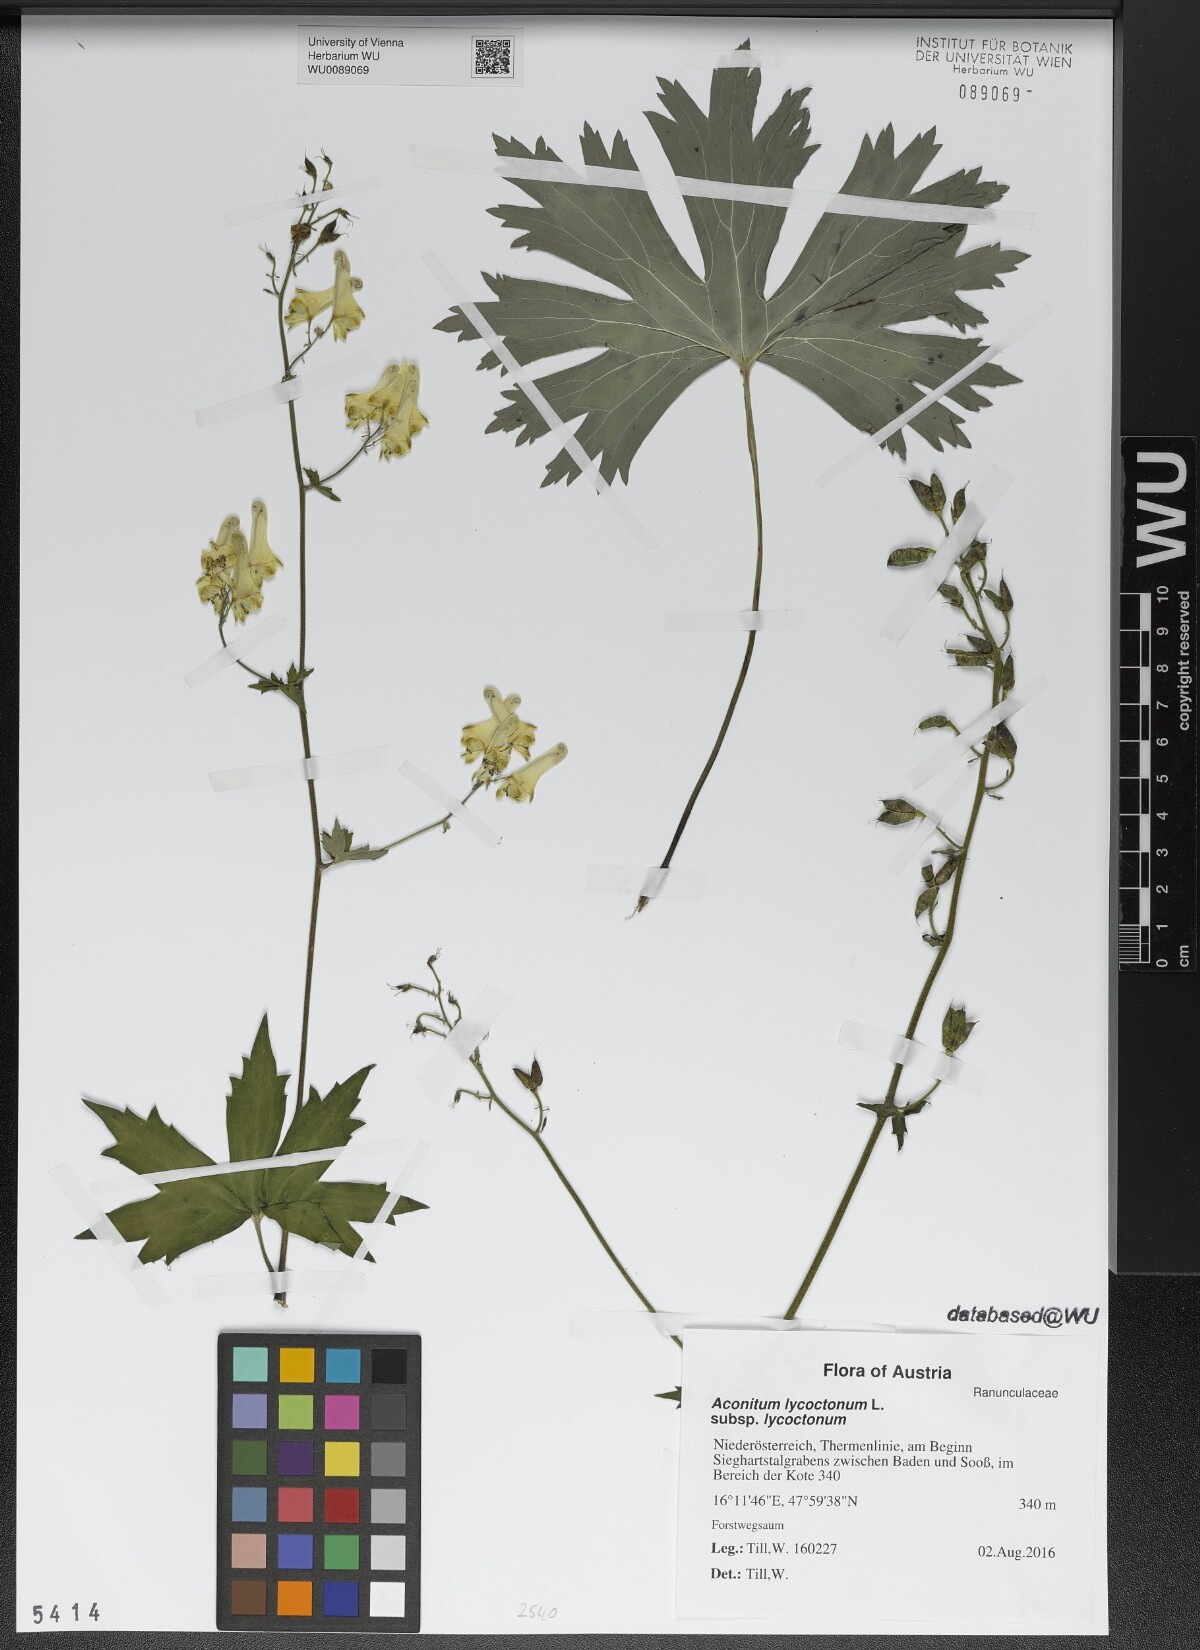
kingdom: Plantae
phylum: Tracheophyta
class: Magnoliopsida
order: Ranunculales
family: Ranunculaceae
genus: Aconitum
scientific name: Aconitum lycoctonum
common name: Wolf's-bane
